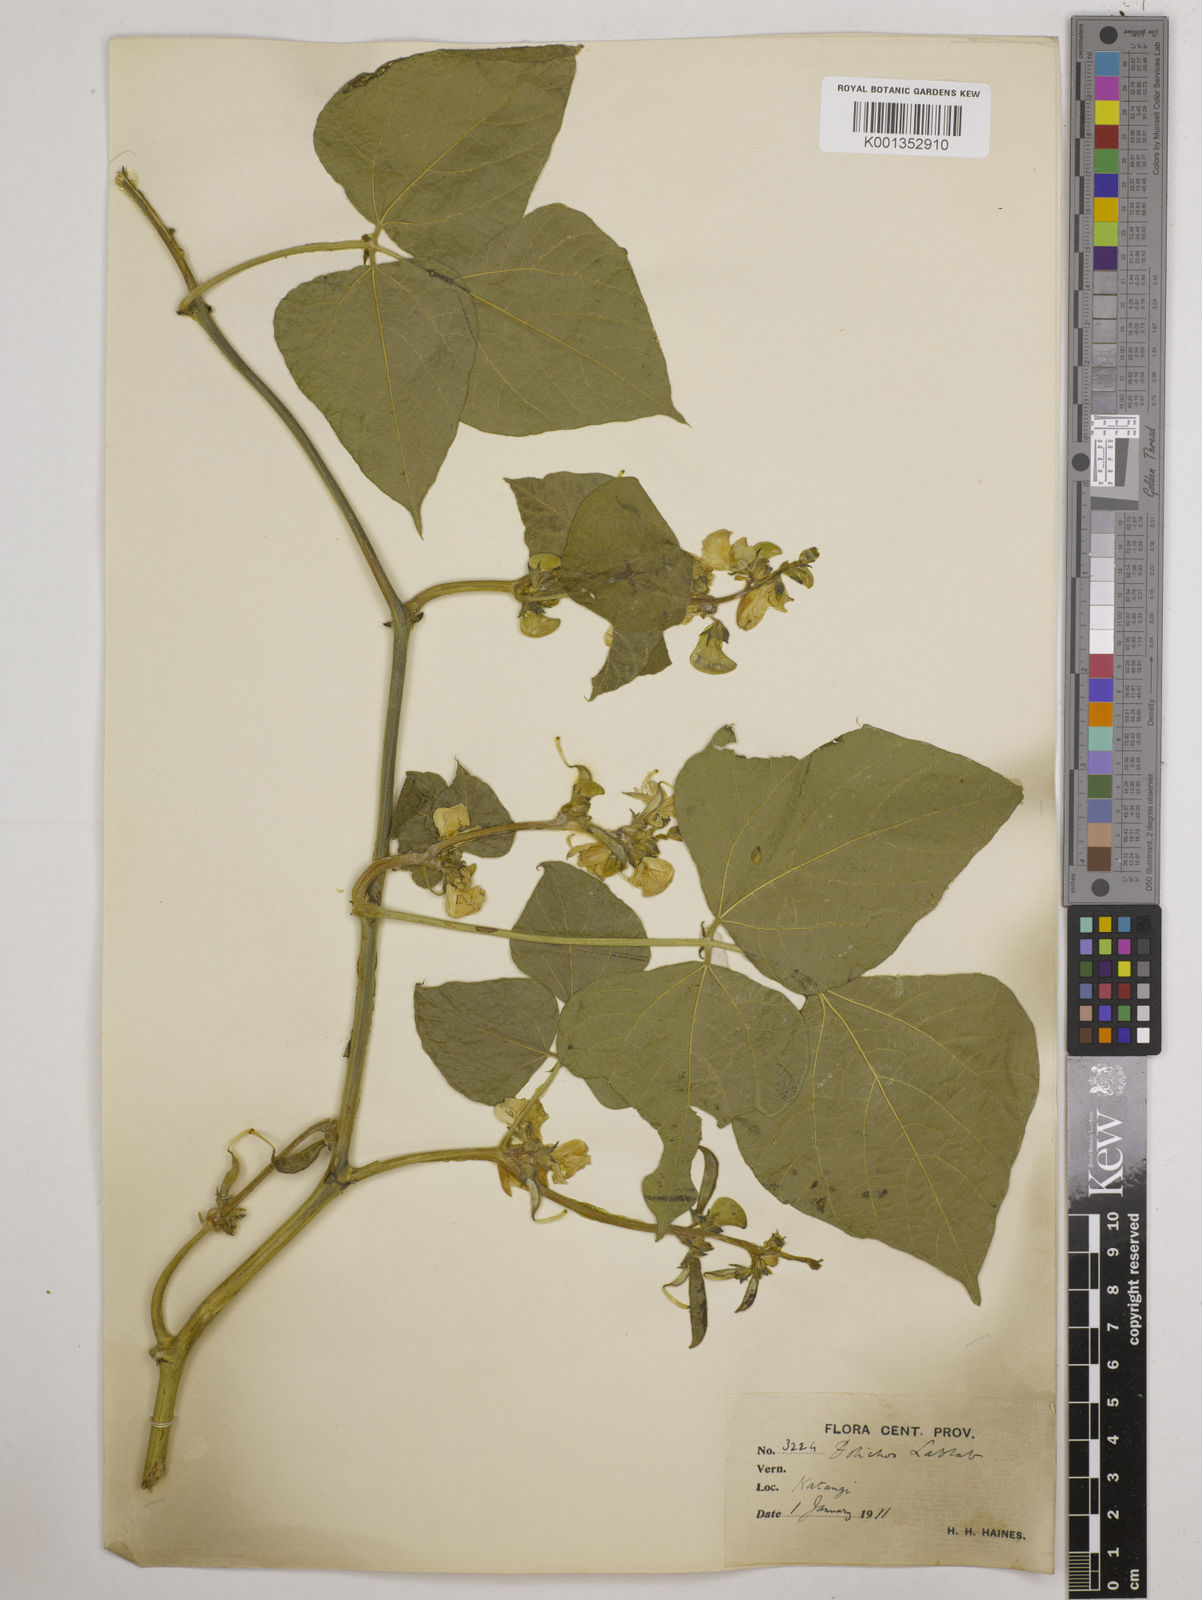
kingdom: Plantae
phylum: Tracheophyta
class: Magnoliopsida
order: Fabales
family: Fabaceae
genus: Lablab
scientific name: Lablab purpureus
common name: Lablab-bean
